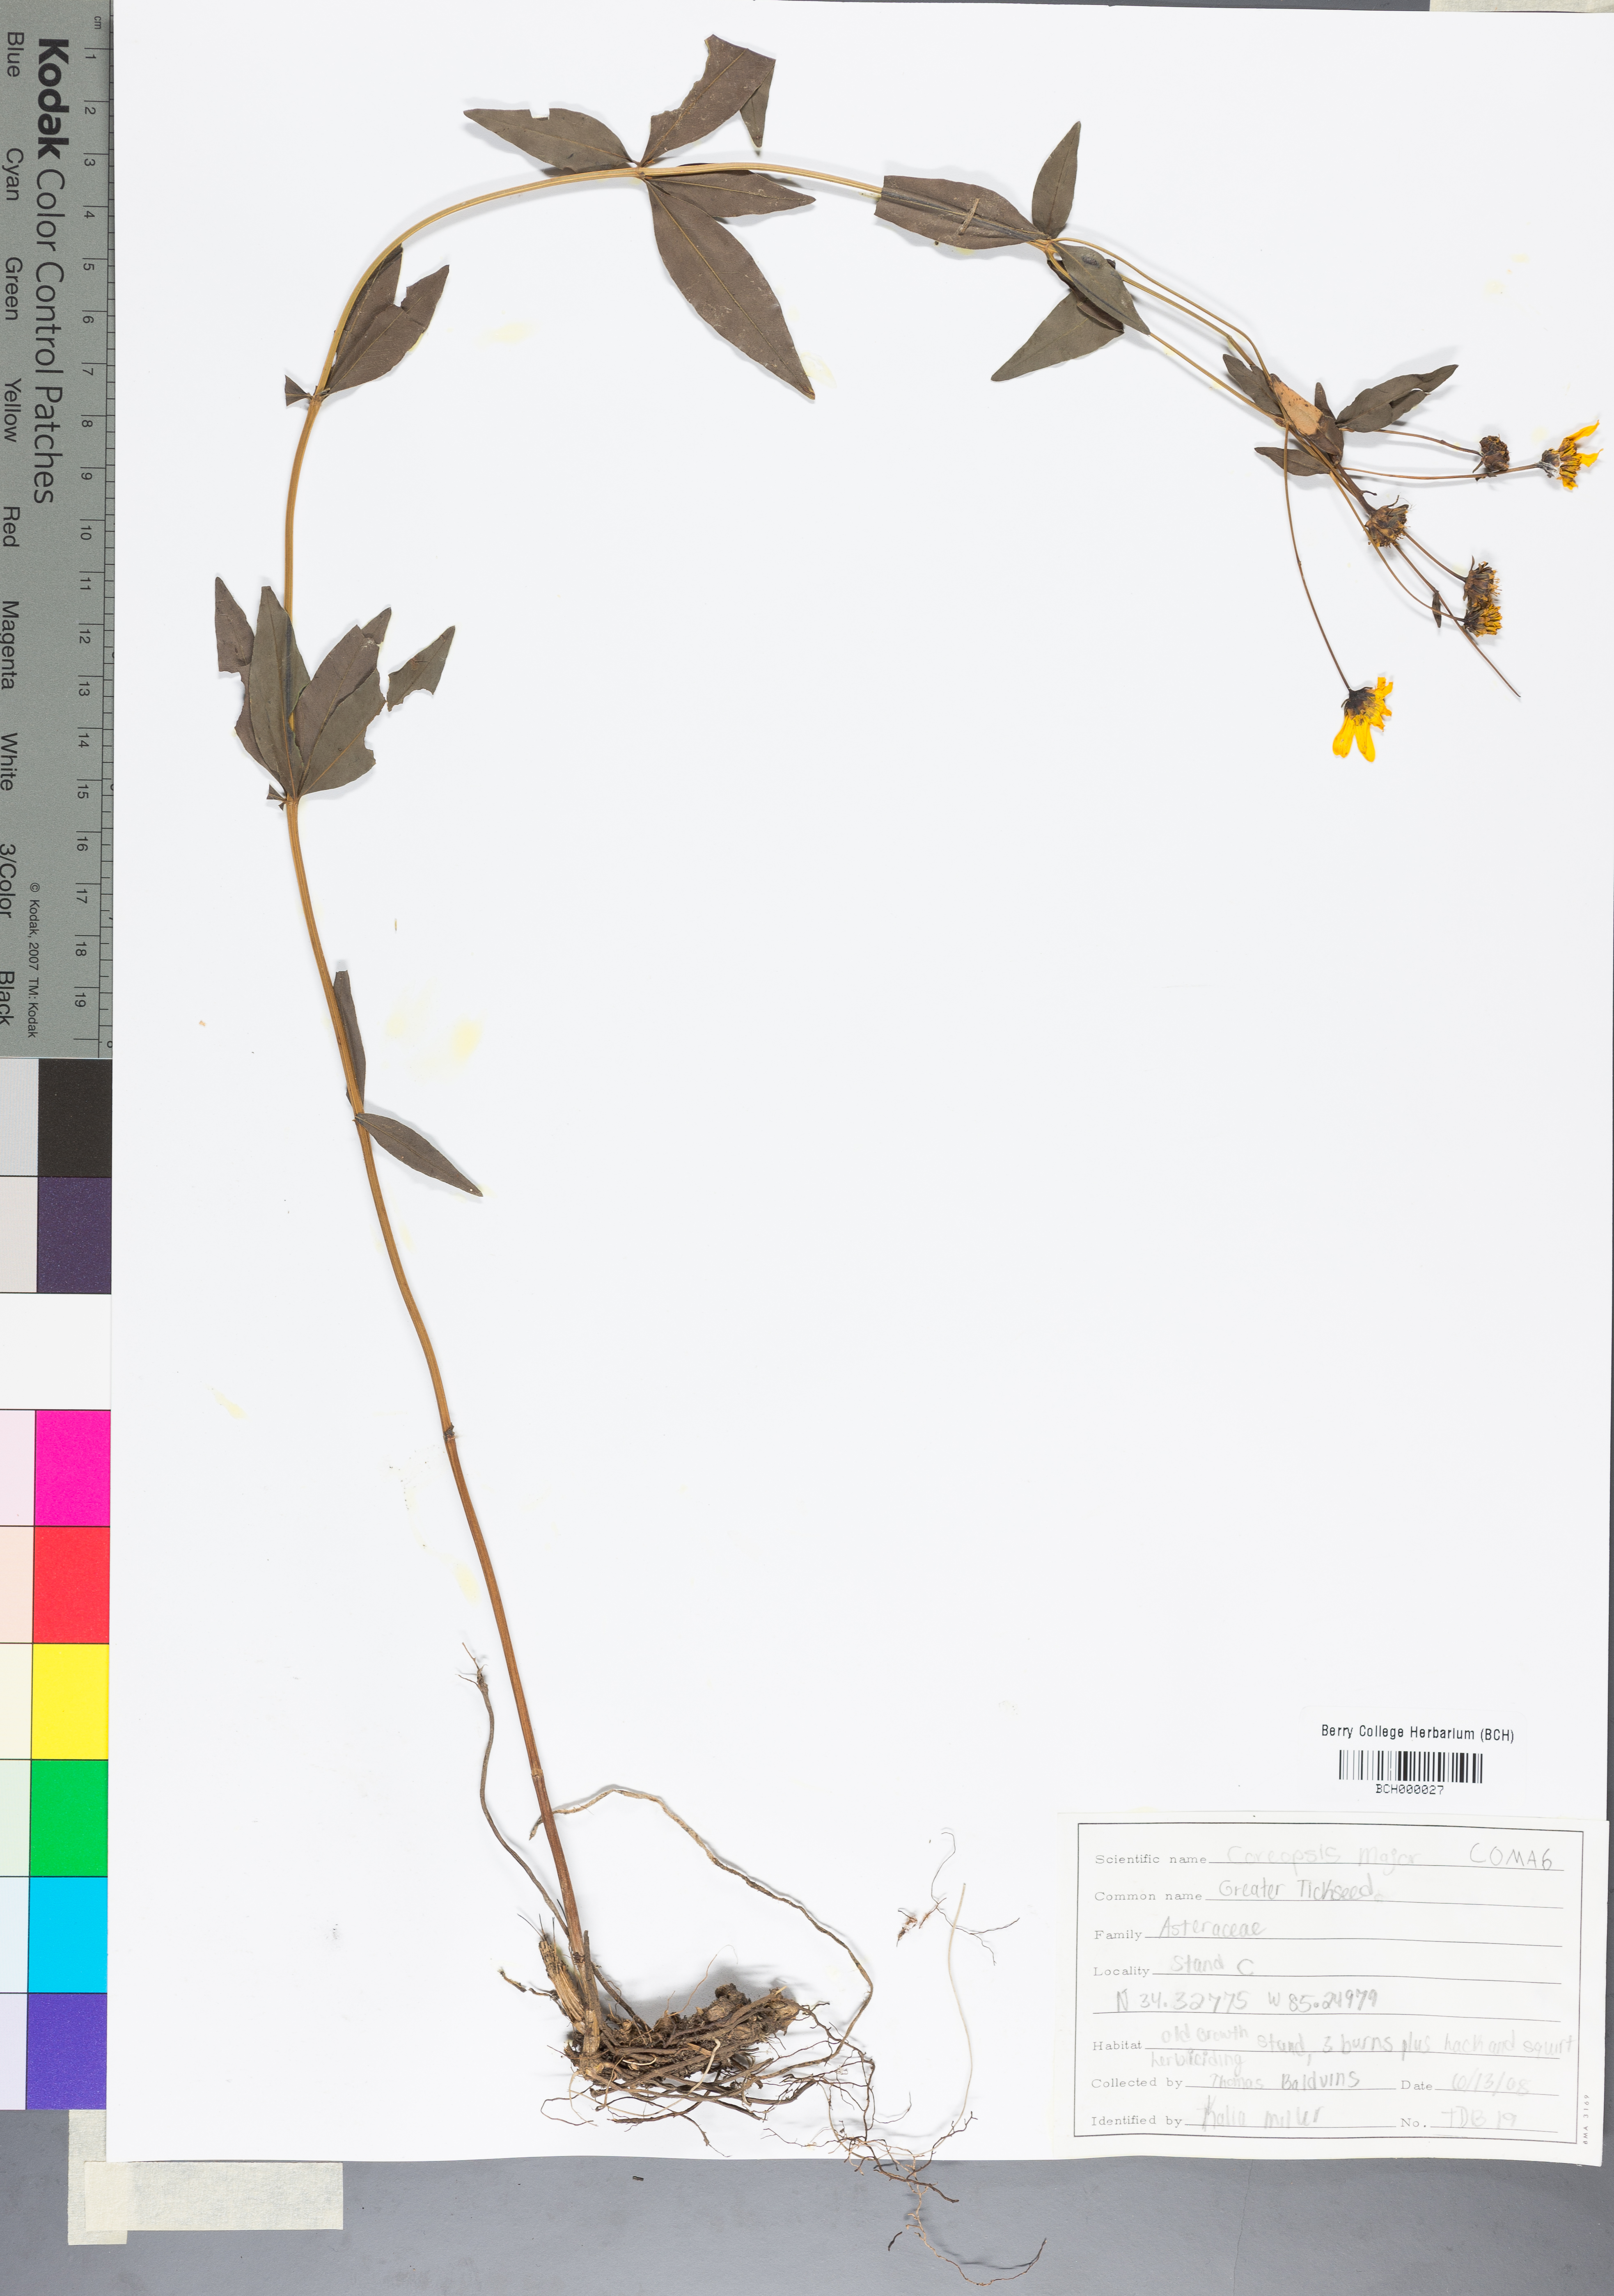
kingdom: Plantae
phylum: Tracheophyta
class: Magnoliopsida
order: Asterales
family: Asteraceae
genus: Coreopsis
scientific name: Coreopsis major
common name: Forest tickseed
